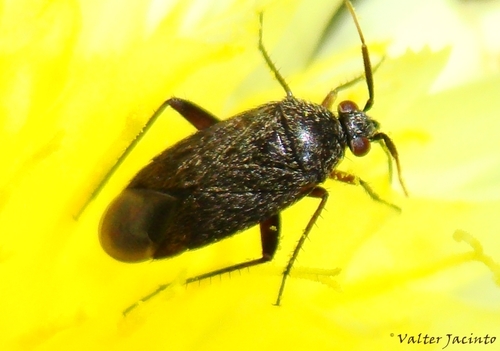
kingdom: Animalia
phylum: Arthropoda
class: Insecta
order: Hemiptera
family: Miridae
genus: Lepidargyrus
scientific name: Lepidargyrus ancorifer
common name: Plant bug
